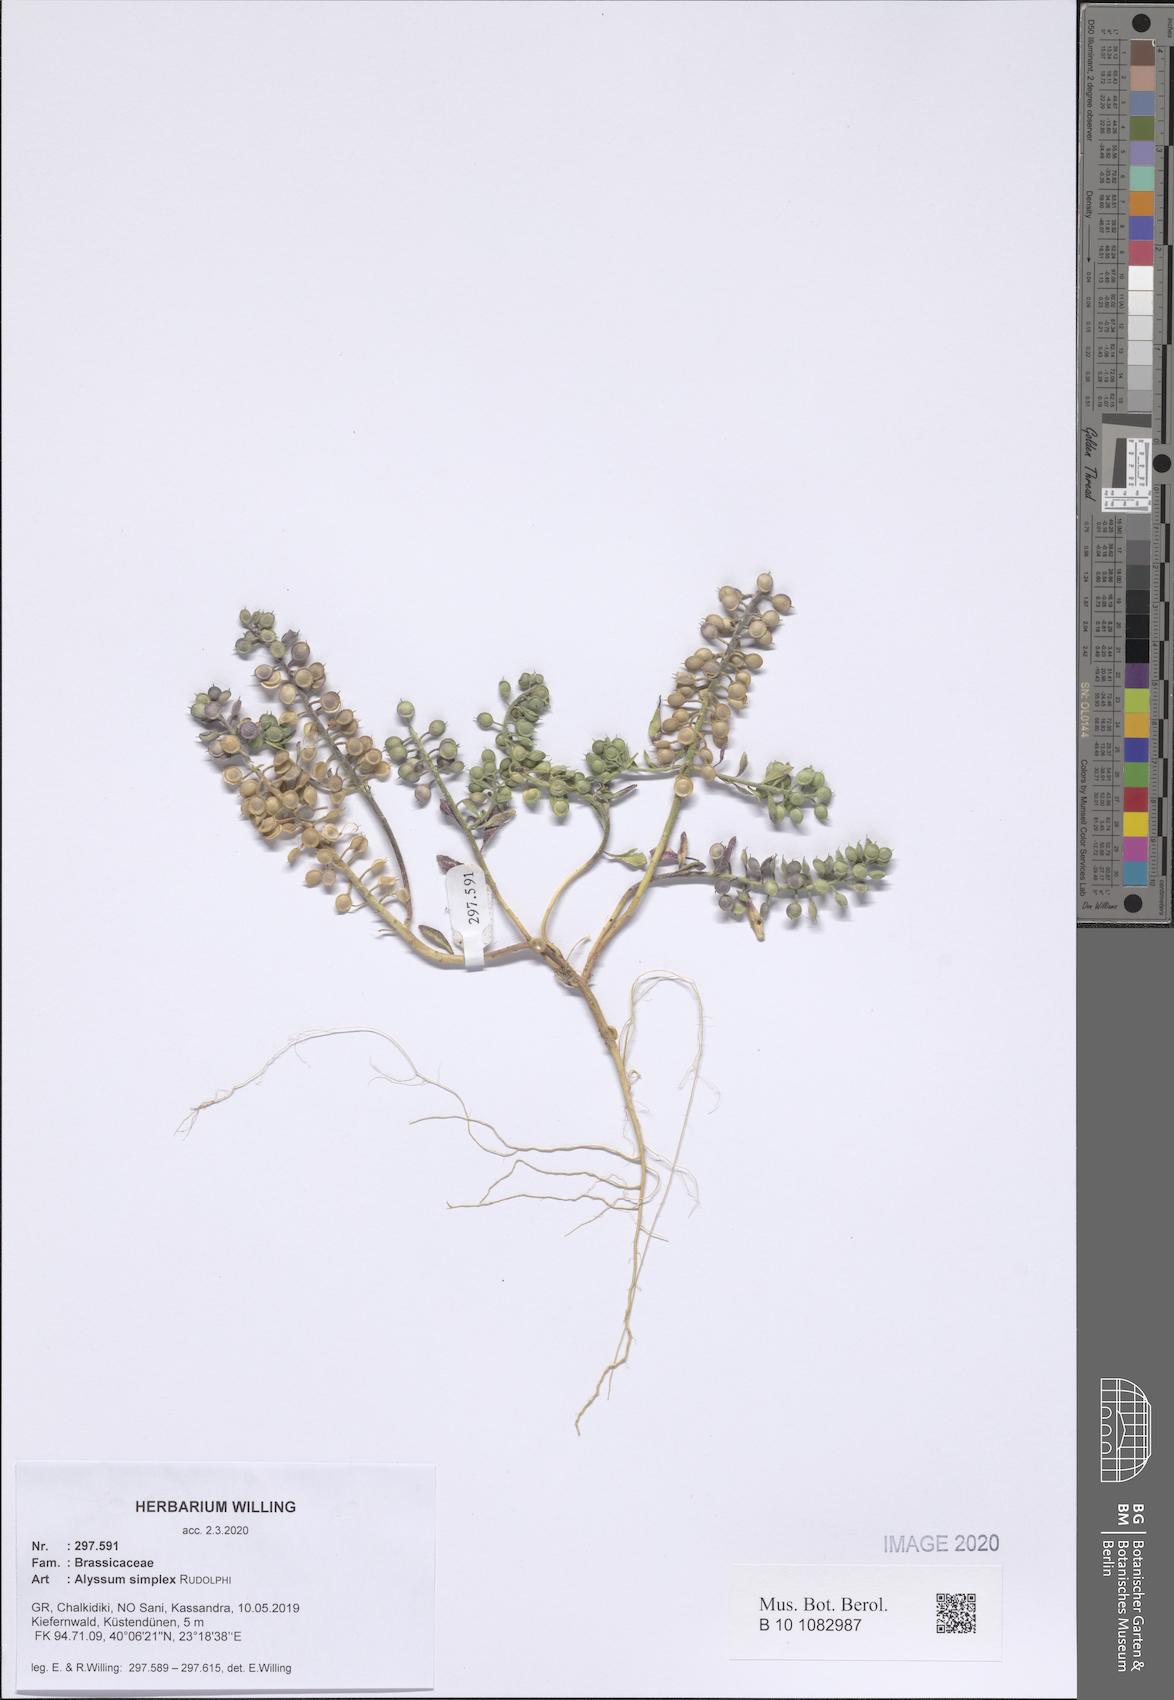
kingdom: Plantae
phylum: Tracheophyta
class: Magnoliopsida
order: Brassicales
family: Brassicaceae
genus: Alyssum
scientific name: Alyssum simplex
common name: Alyssum
